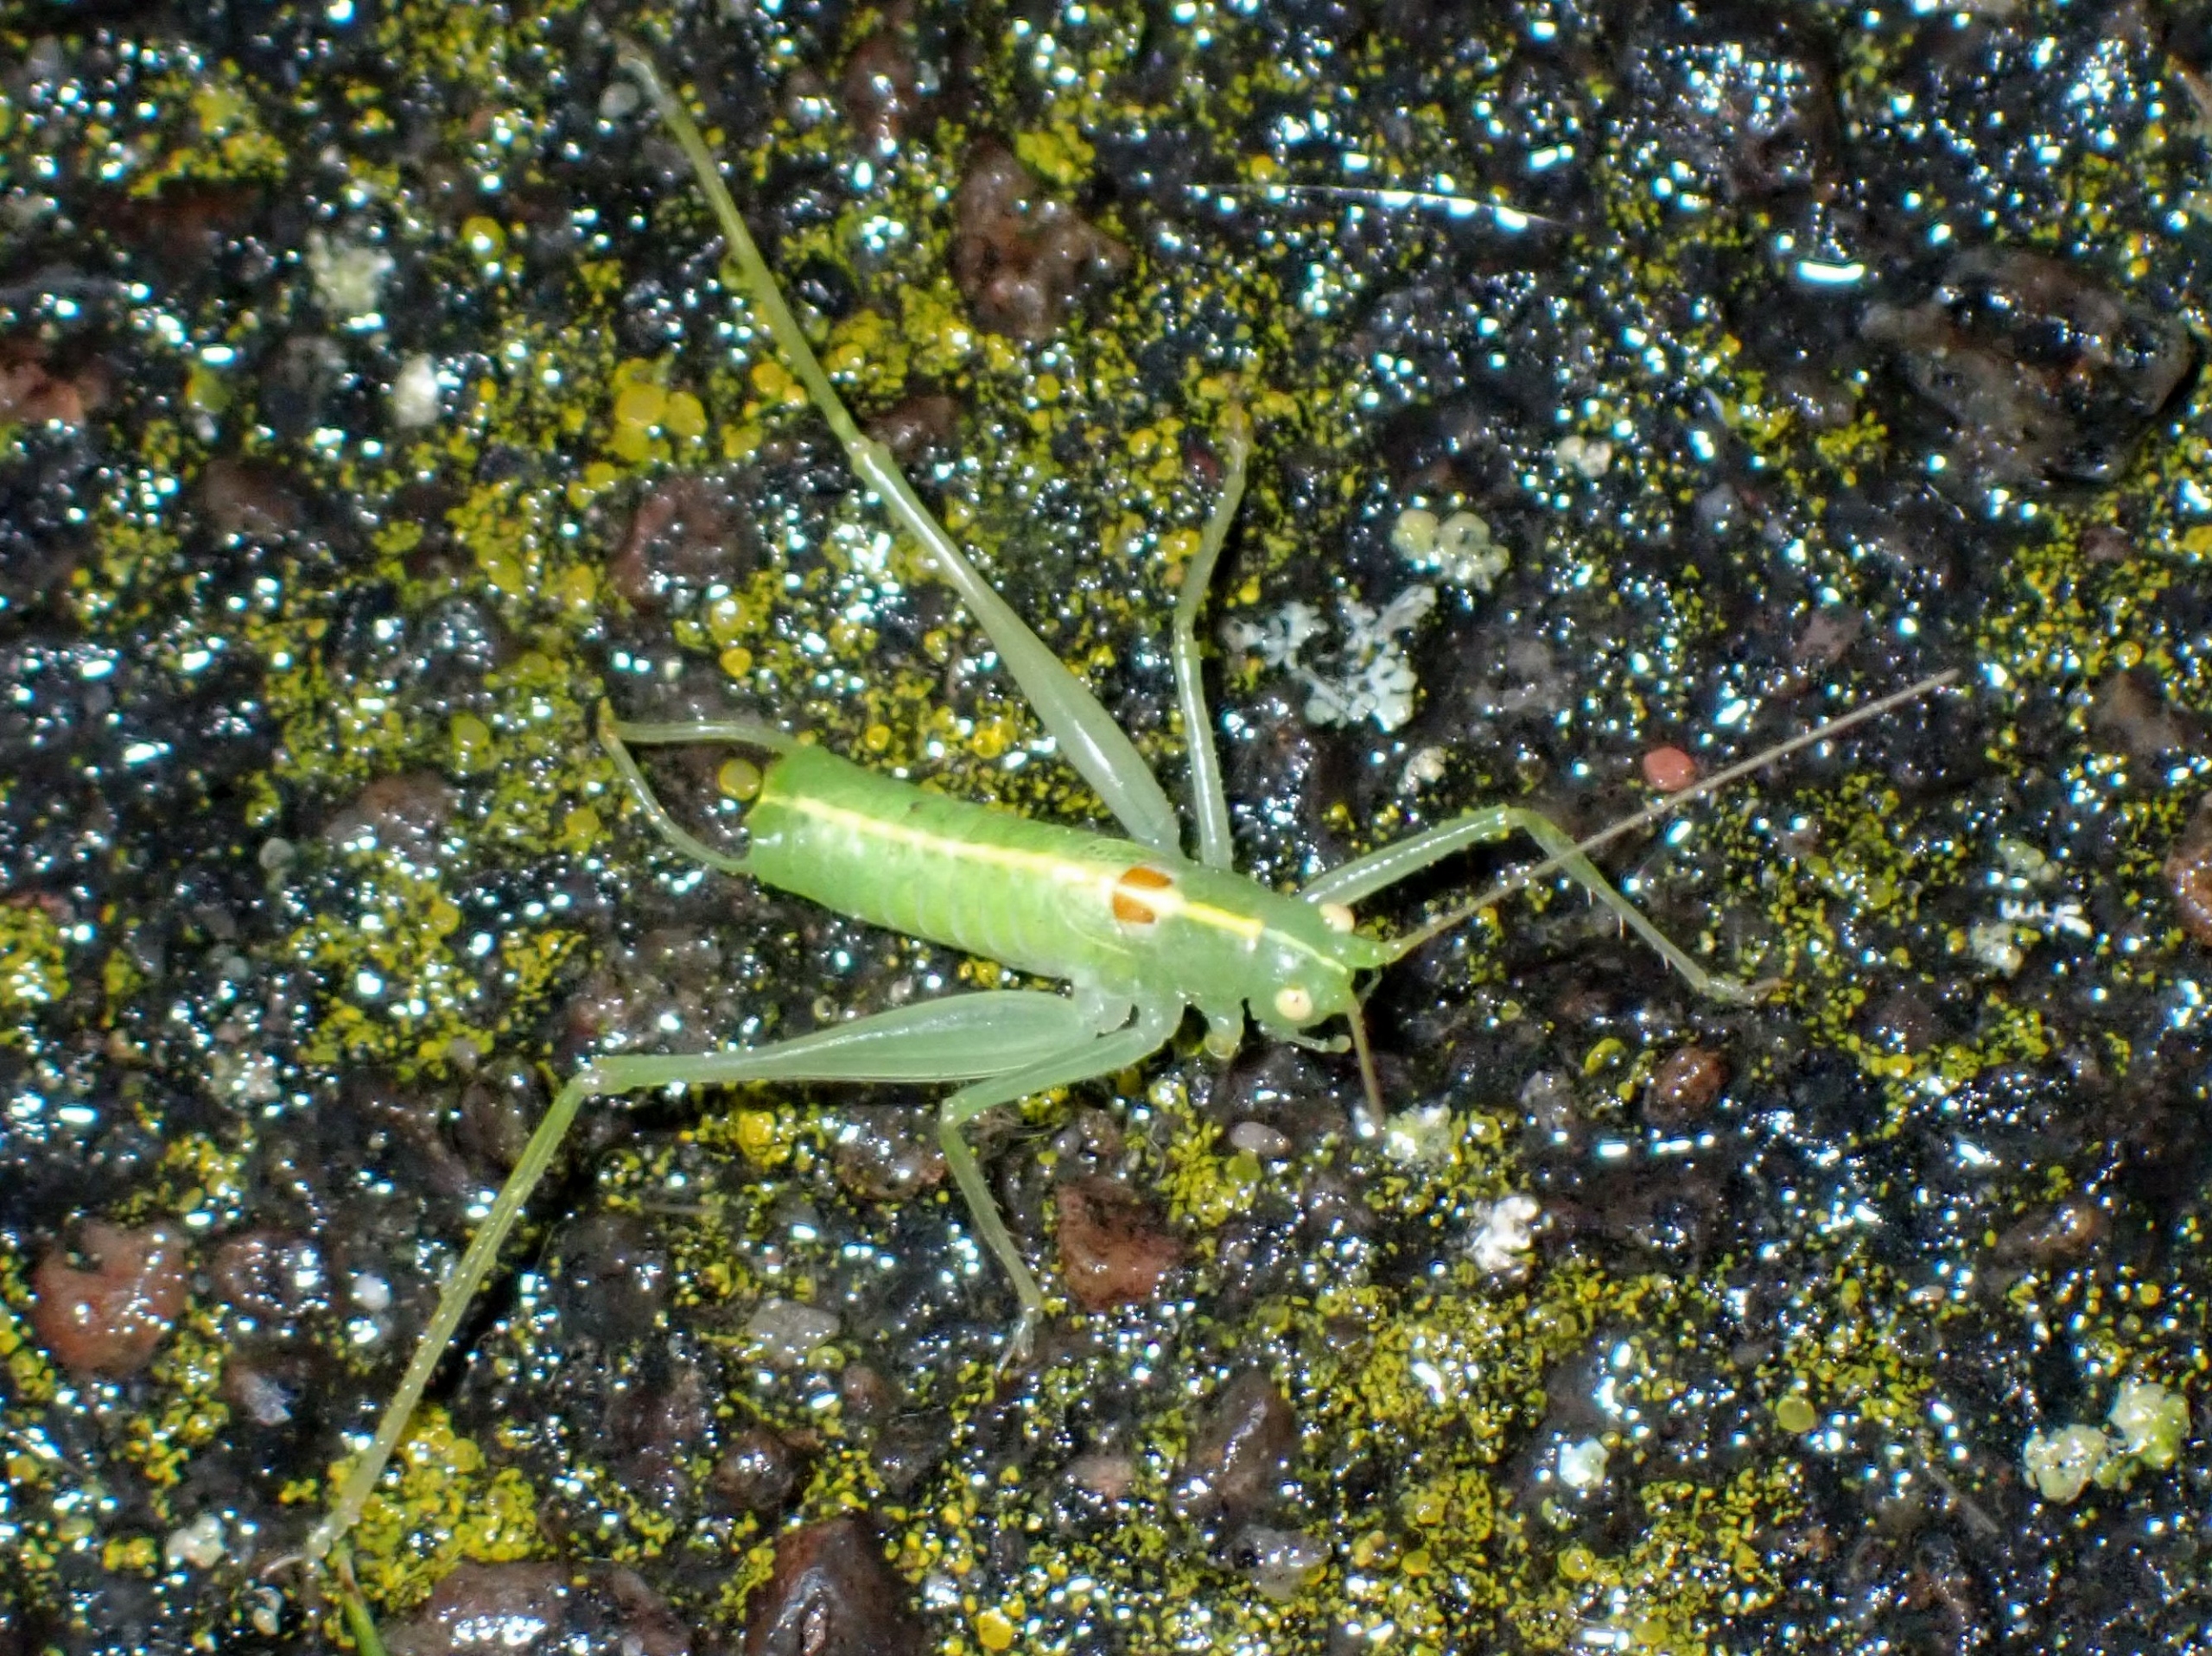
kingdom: Animalia
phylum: Arthropoda
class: Insecta
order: Orthoptera
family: Tettigoniidae
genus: Meconema
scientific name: Meconema meridionale
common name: Kortvinget egegræshoppe
